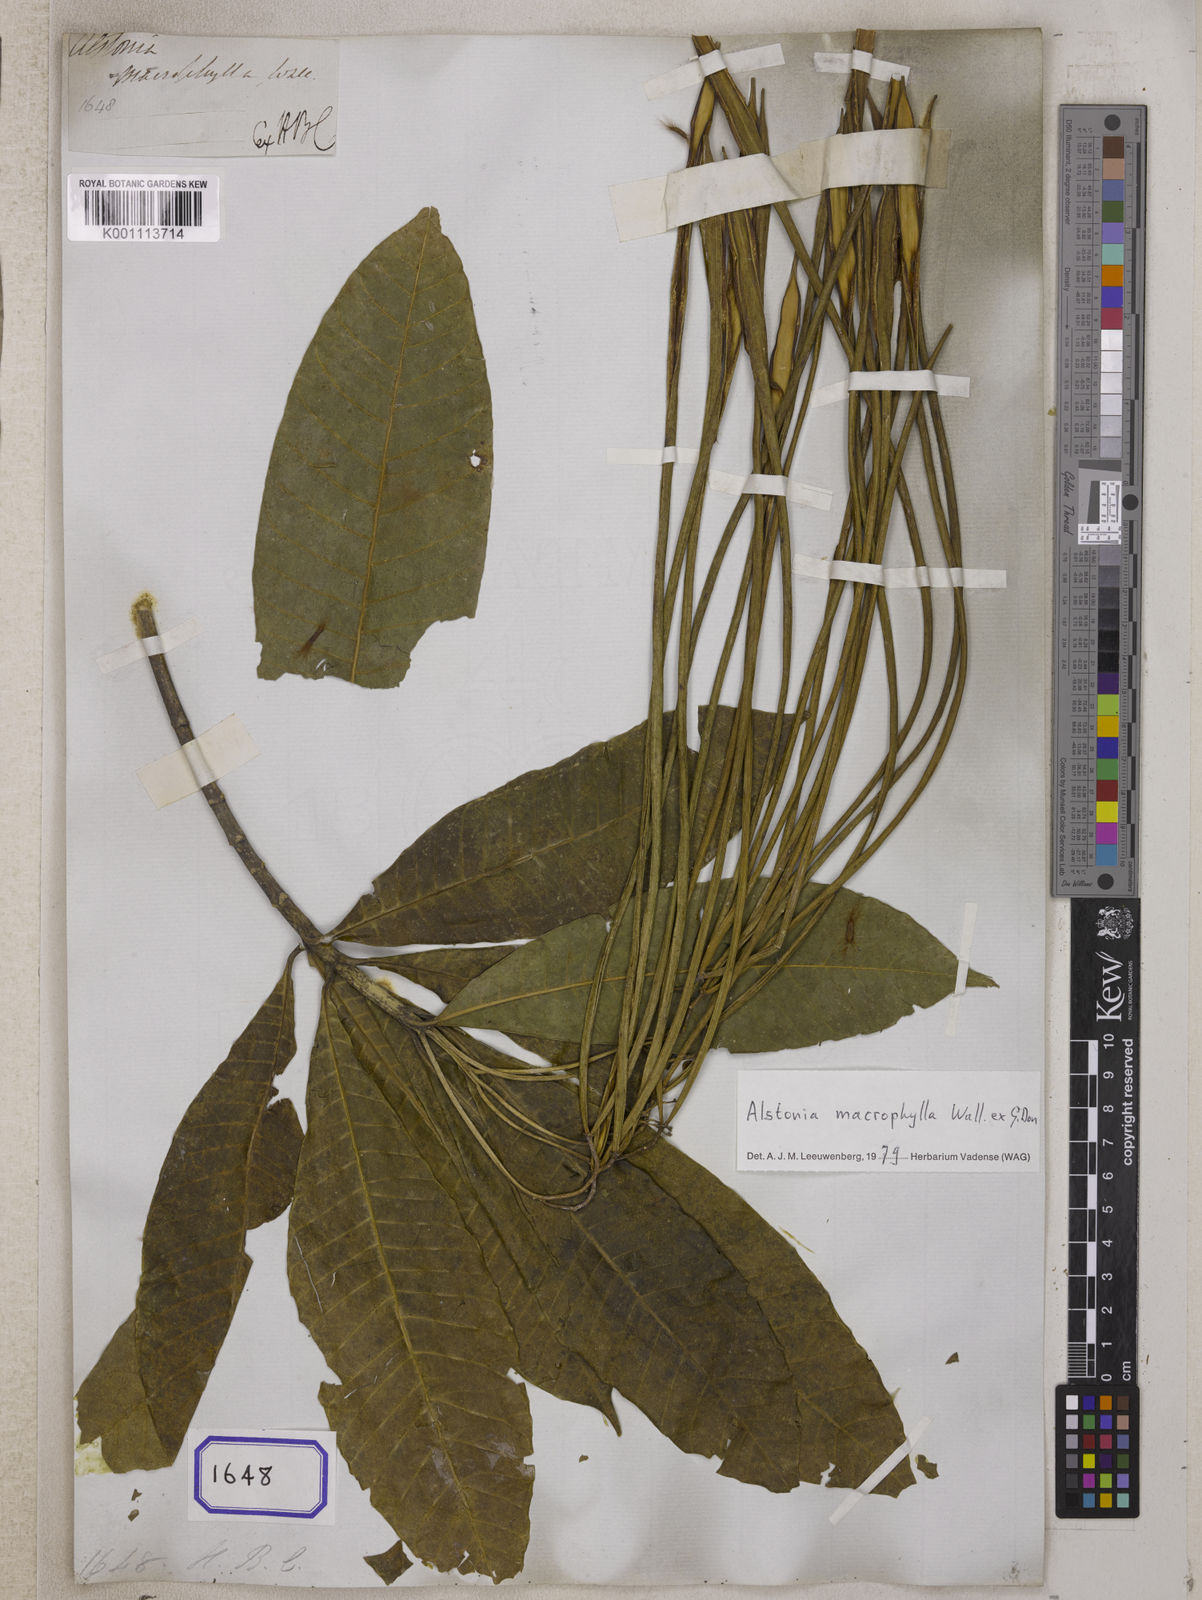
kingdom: Plantae
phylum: Tracheophyta
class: Magnoliopsida
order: Gentianales
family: Apocynaceae
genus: Alstonia
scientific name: Alstonia
